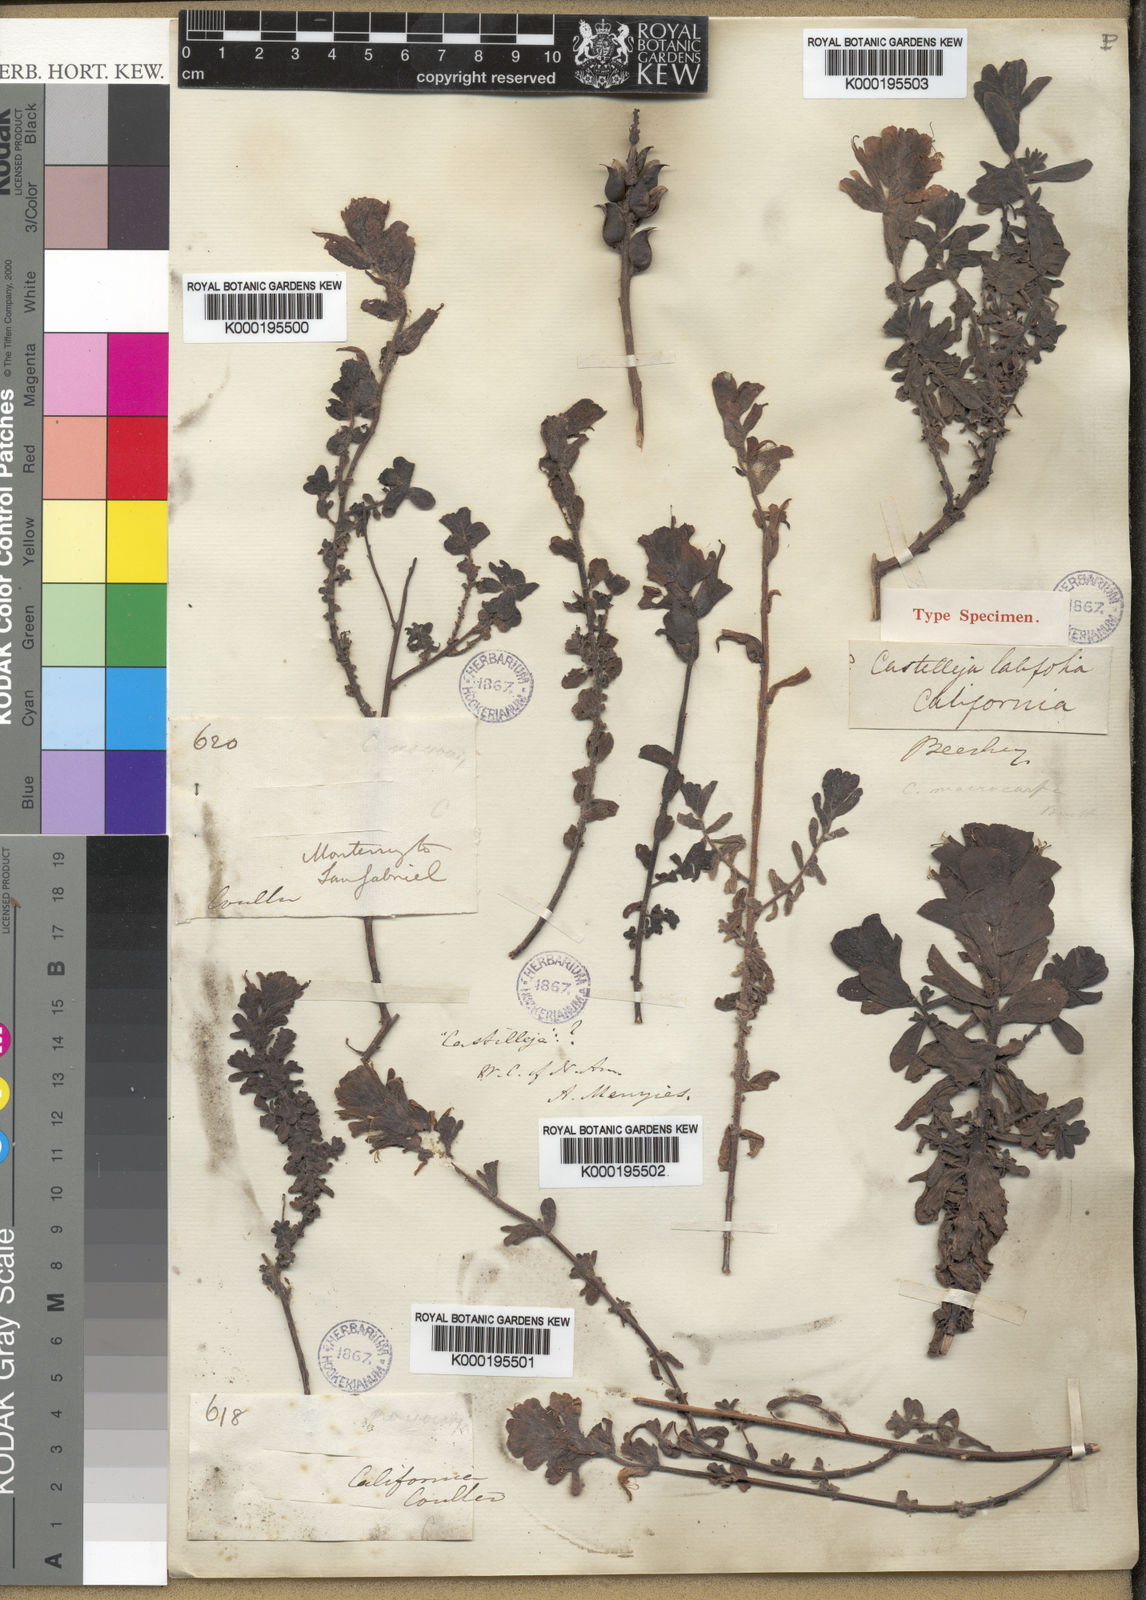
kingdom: Plantae
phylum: Tracheophyta
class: Magnoliopsida
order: Lamiales
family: Orobanchaceae
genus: Castilleja
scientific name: Castilleja latifolia
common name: Monterey indian paintbrush
